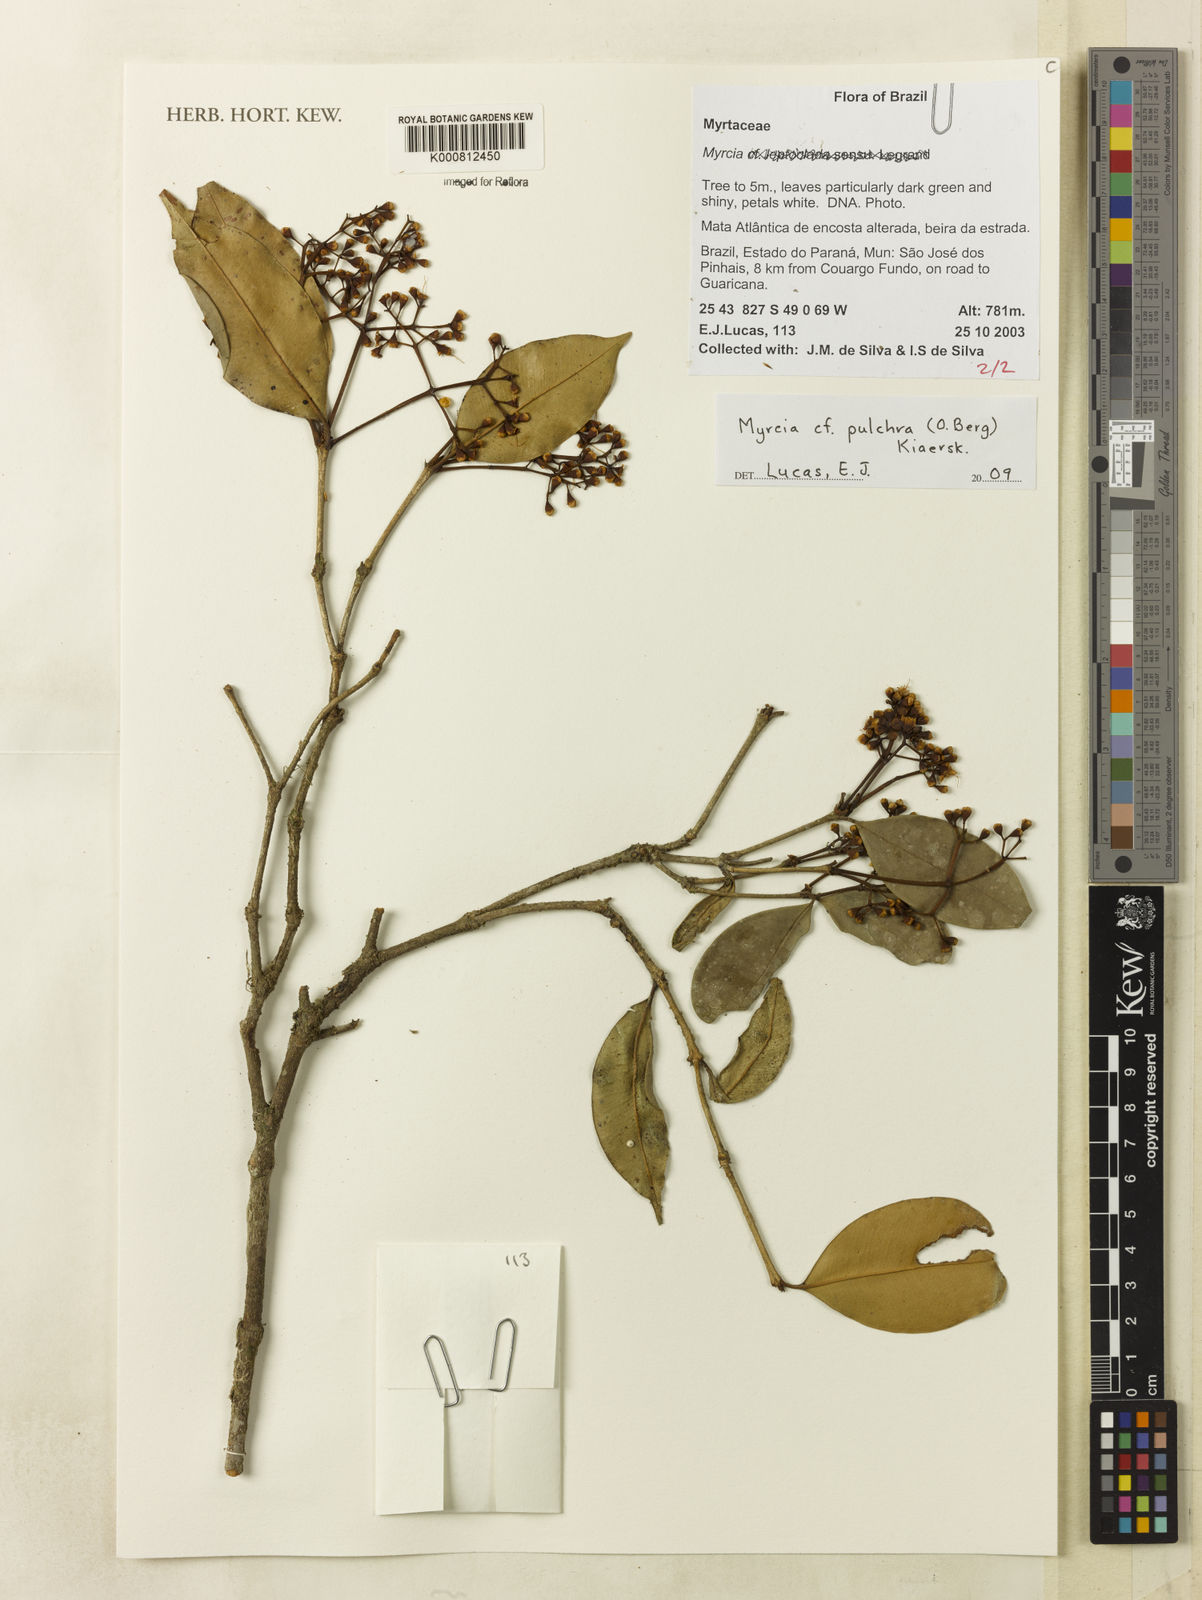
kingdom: Plantae
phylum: Tracheophyta
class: Magnoliopsida
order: Myrtales
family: Myrtaceae
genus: Myrcia
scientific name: Myrcia
